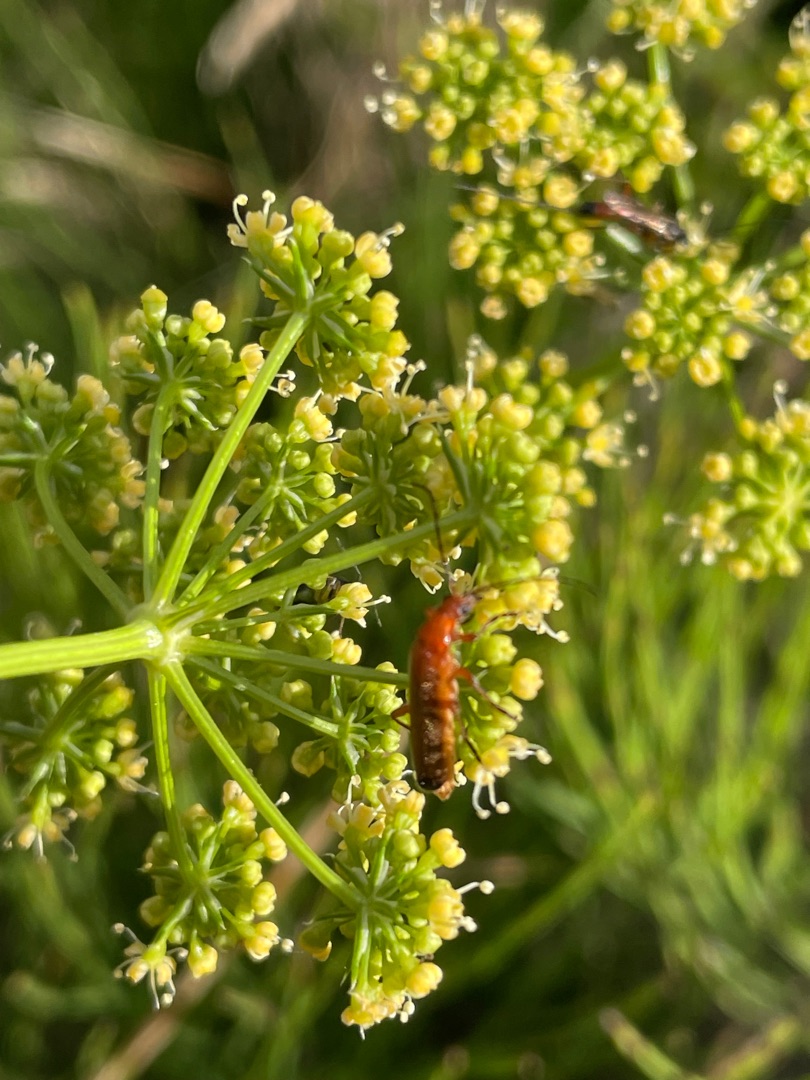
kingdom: Animalia
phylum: Arthropoda
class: Insecta
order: Coleoptera
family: Cantharidae
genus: Rhagonycha
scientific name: Rhagonycha fulva
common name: Præstebille
